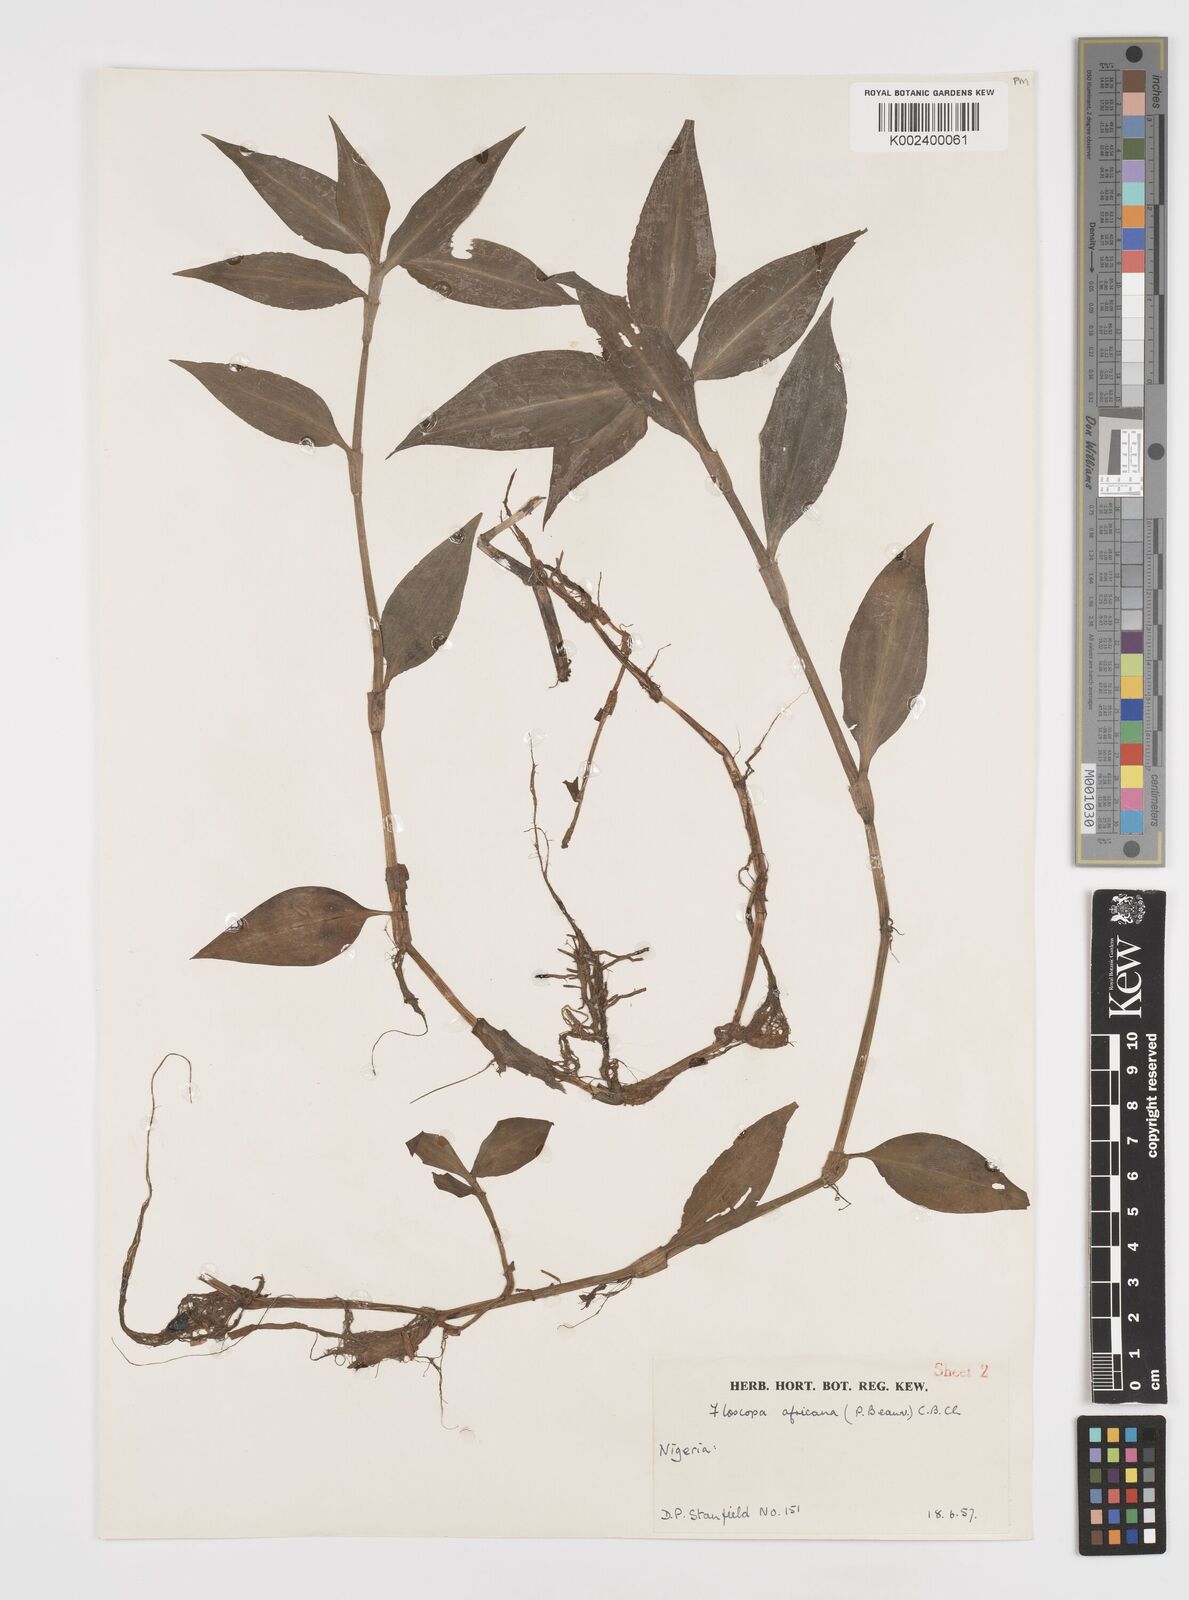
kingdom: Plantae
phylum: Tracheophyta
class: Liliopsida
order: Commelinales
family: Commelinaceae
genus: Floscopa
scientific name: Floscopa africana
